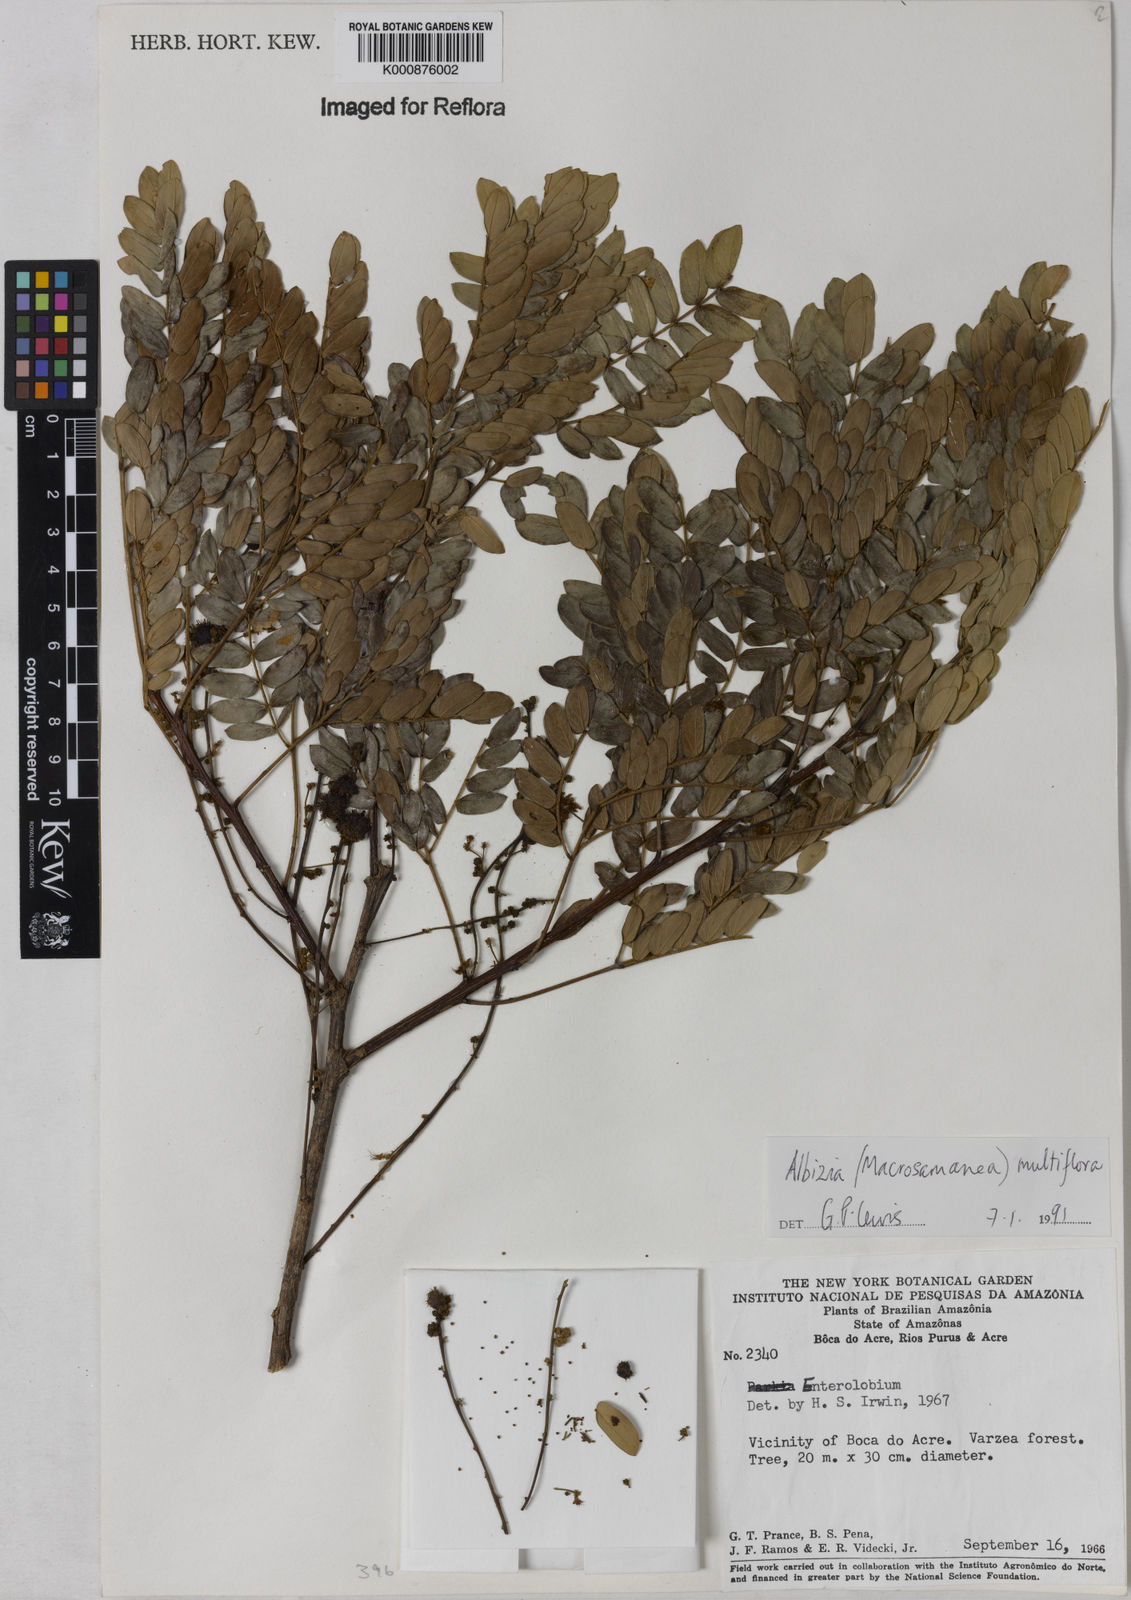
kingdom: Plantae
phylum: Tracheophyta
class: Magnoliopsida
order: Fabales
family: Fabaceae
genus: Albizia
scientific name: Albizia multiflora
